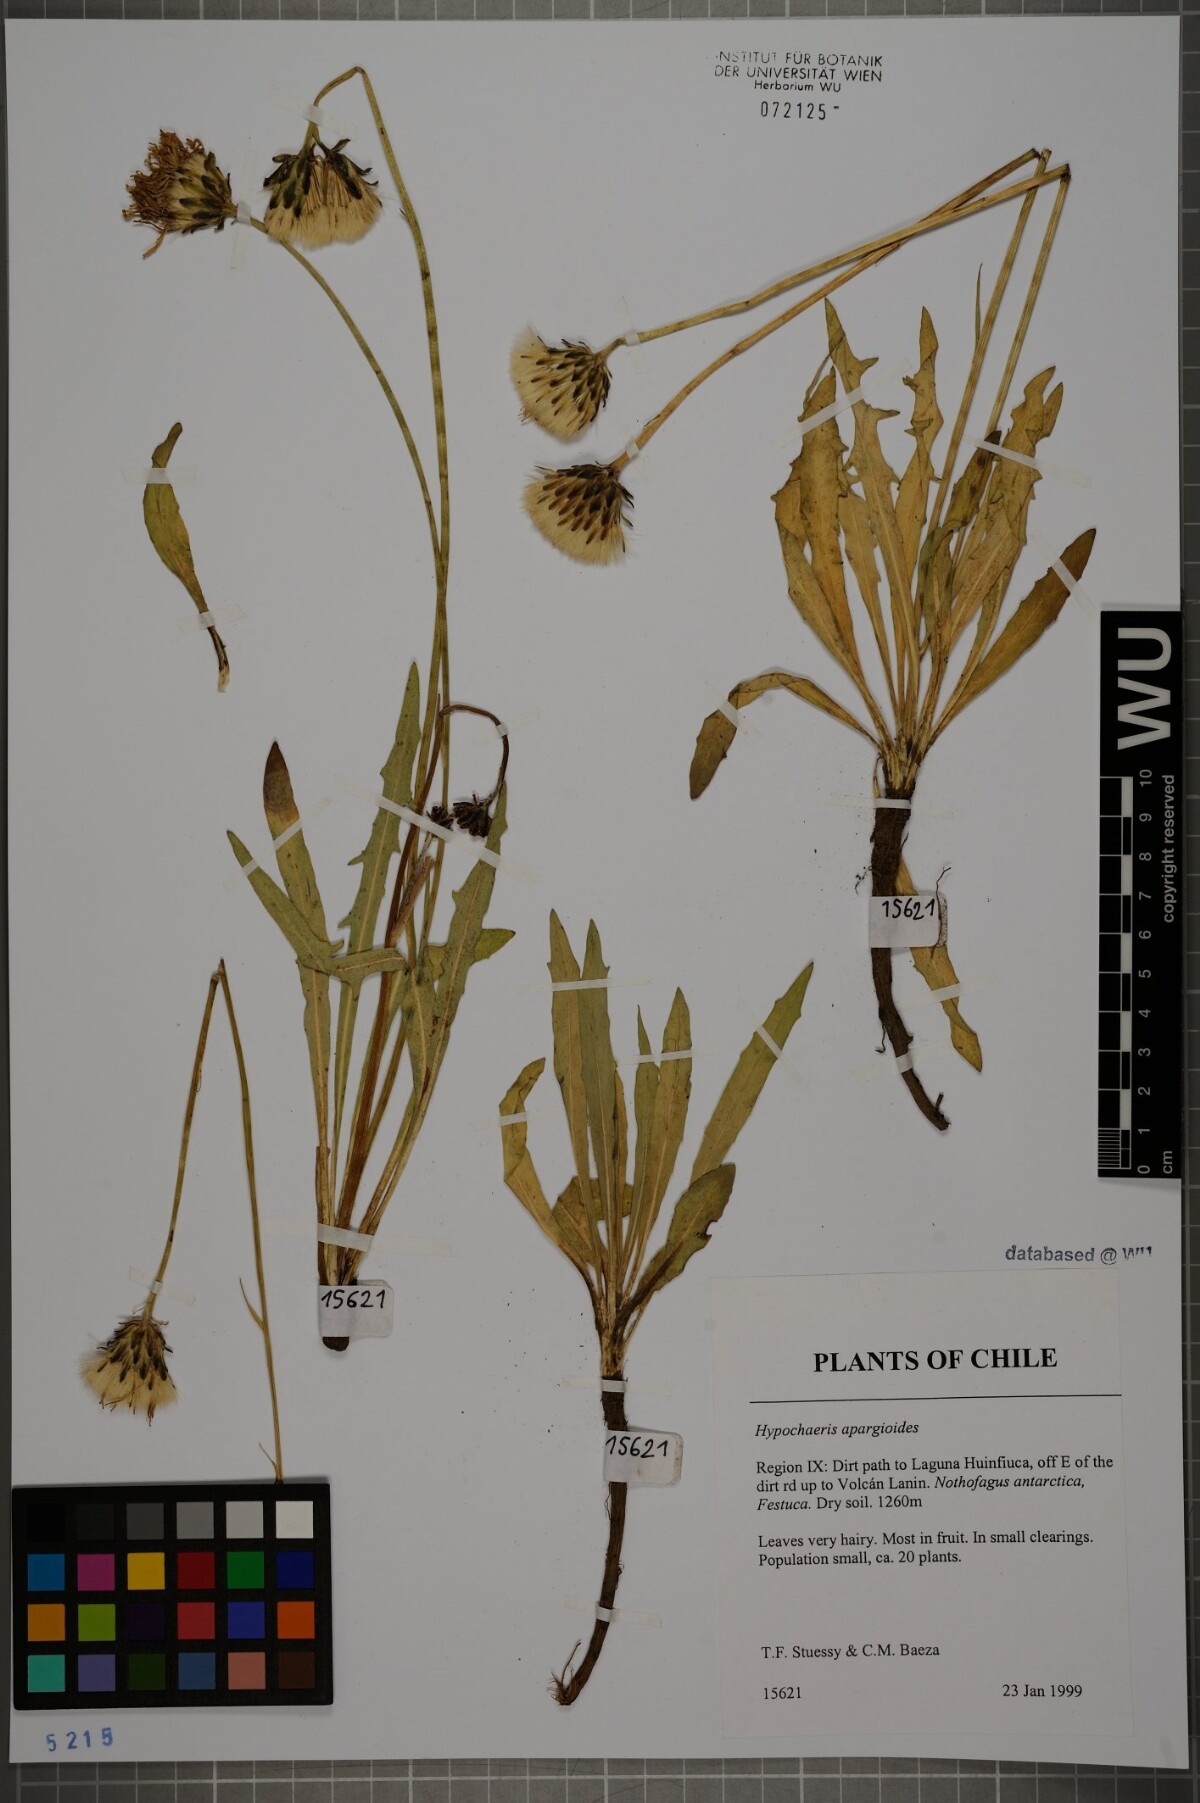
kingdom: Plantae
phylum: Tracheophyta
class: Magnoliopsida
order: Asterales
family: Asteraceae
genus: Hypochaeris
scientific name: Hypochaeris apargioides
